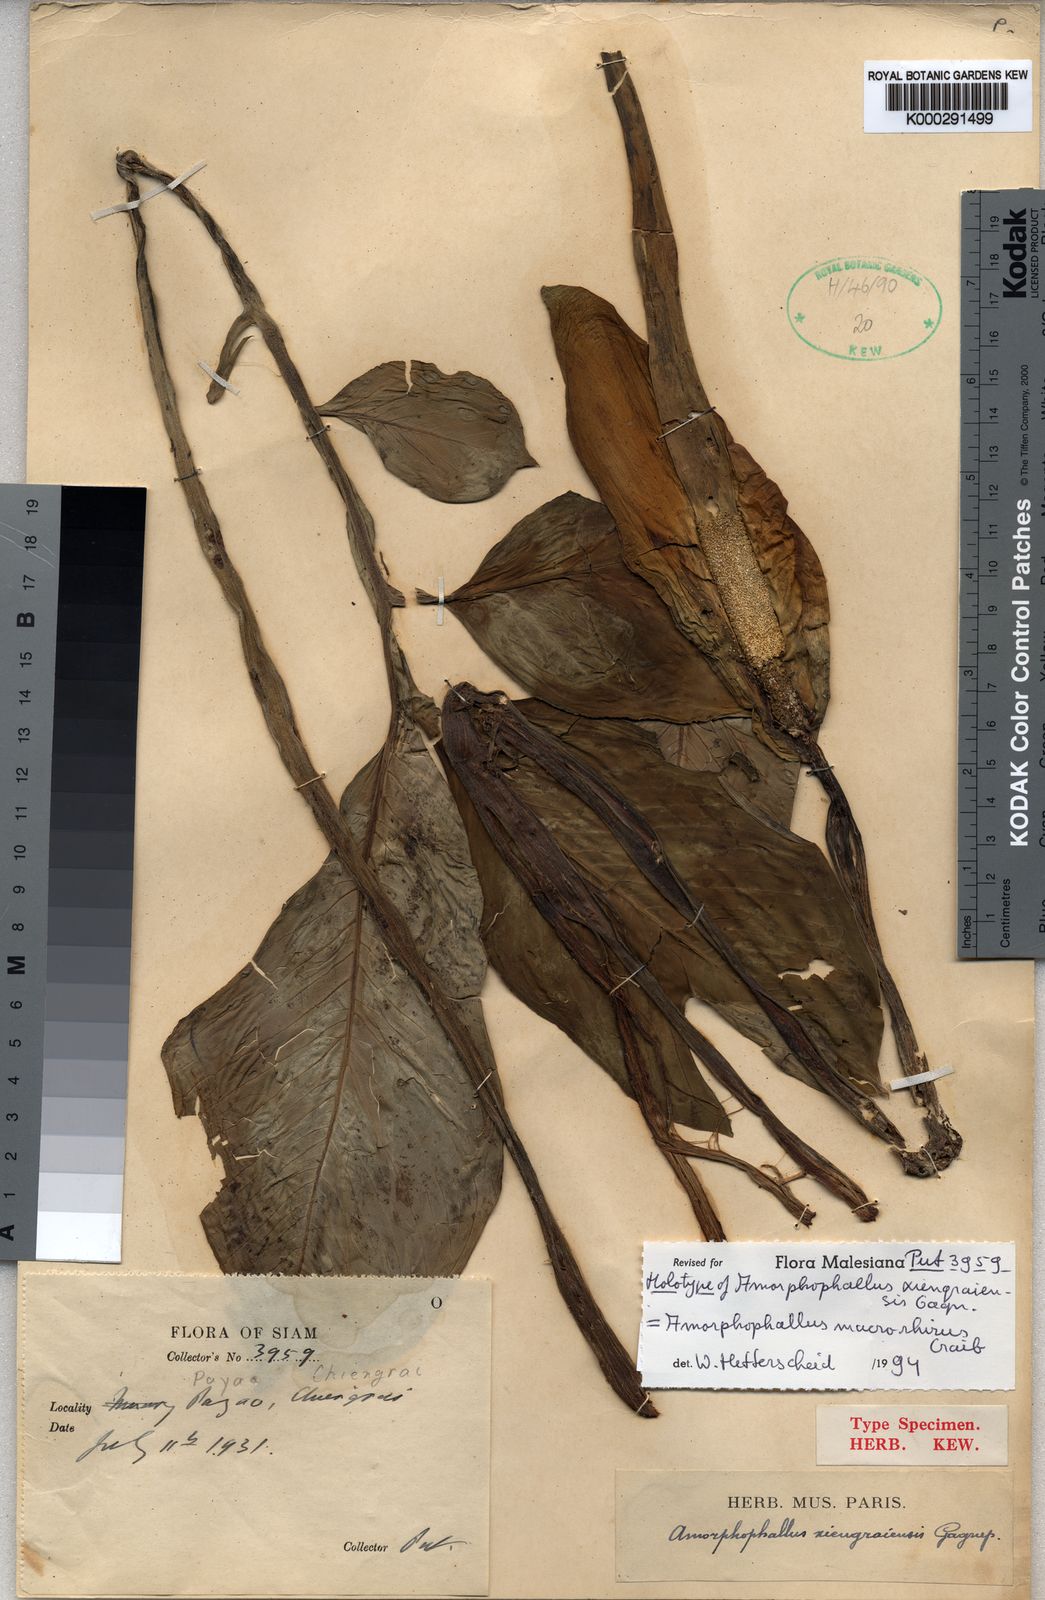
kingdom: Plantae
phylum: Tracheophyta
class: Liliopsida
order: Alismatales
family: Araceae
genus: Amorphophallus
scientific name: Amorphophallus macrorhizus
